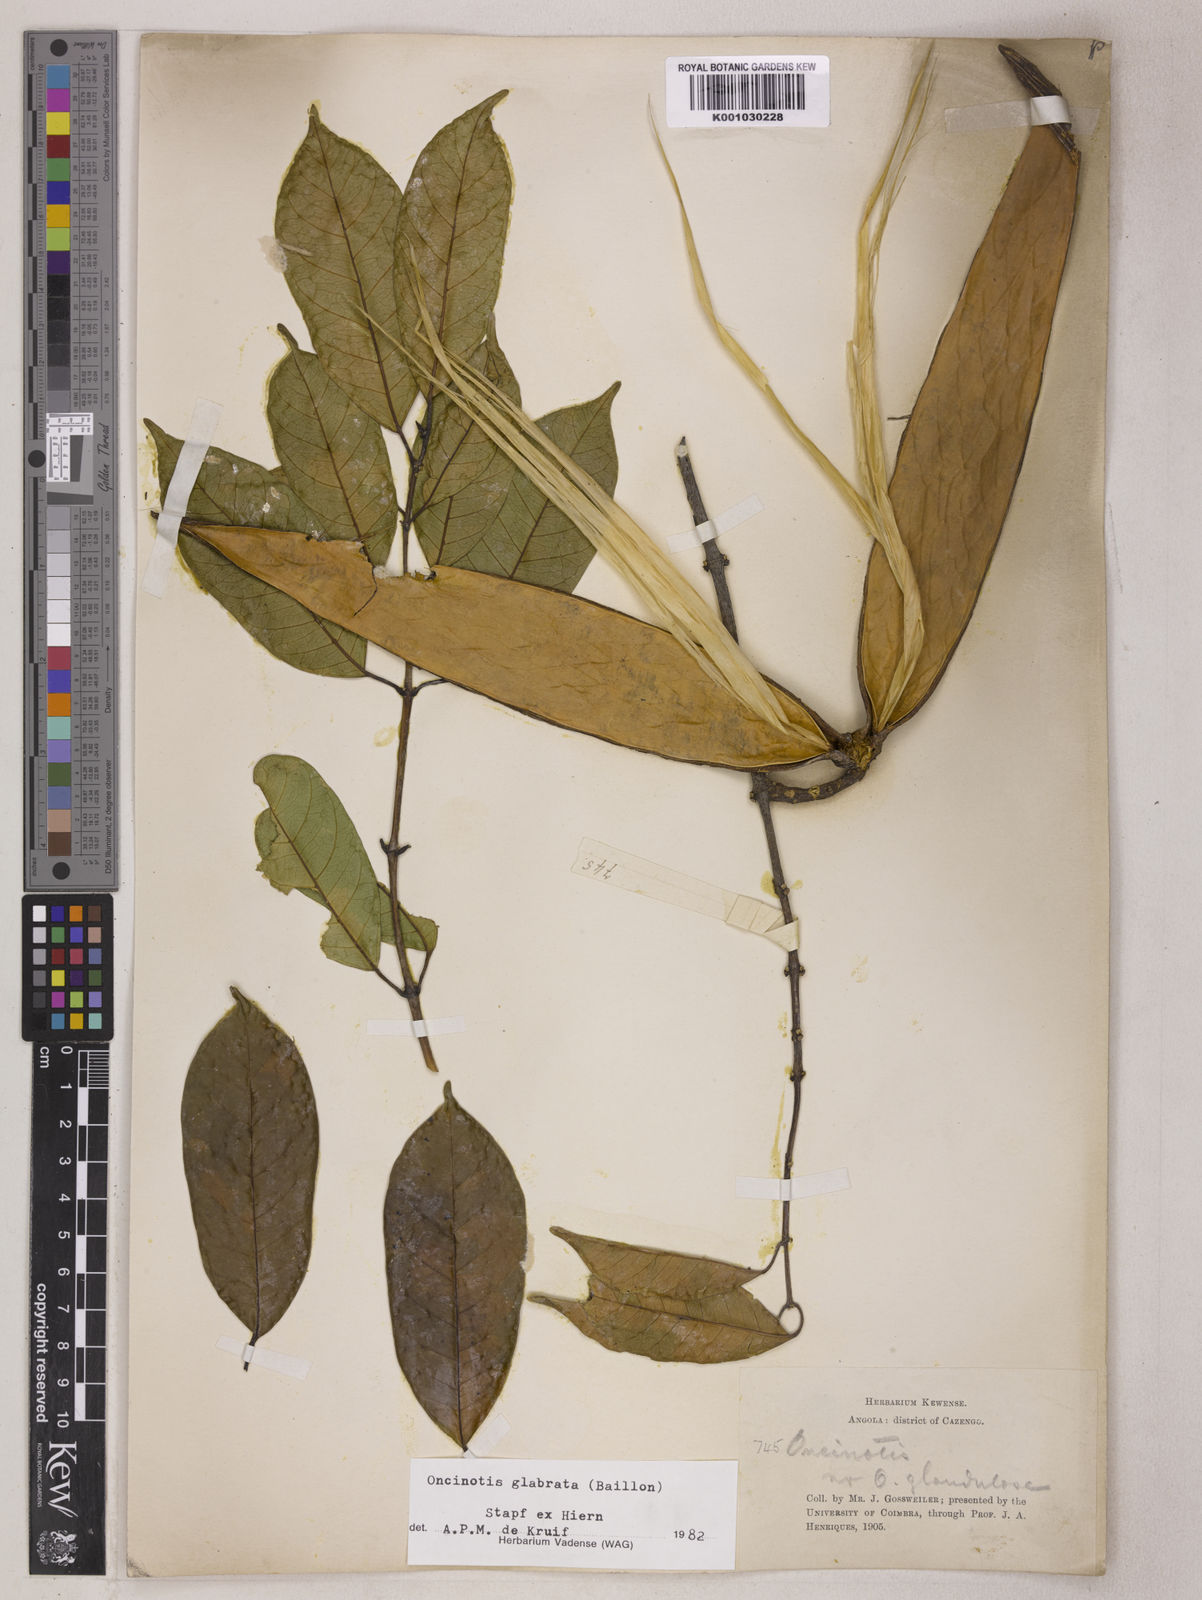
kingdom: Plantae
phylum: Tracheophyta
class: Magnoliopsida
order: Gentianales
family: Apocynaceae
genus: Oncinotis
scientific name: Oncinotis glabrata
